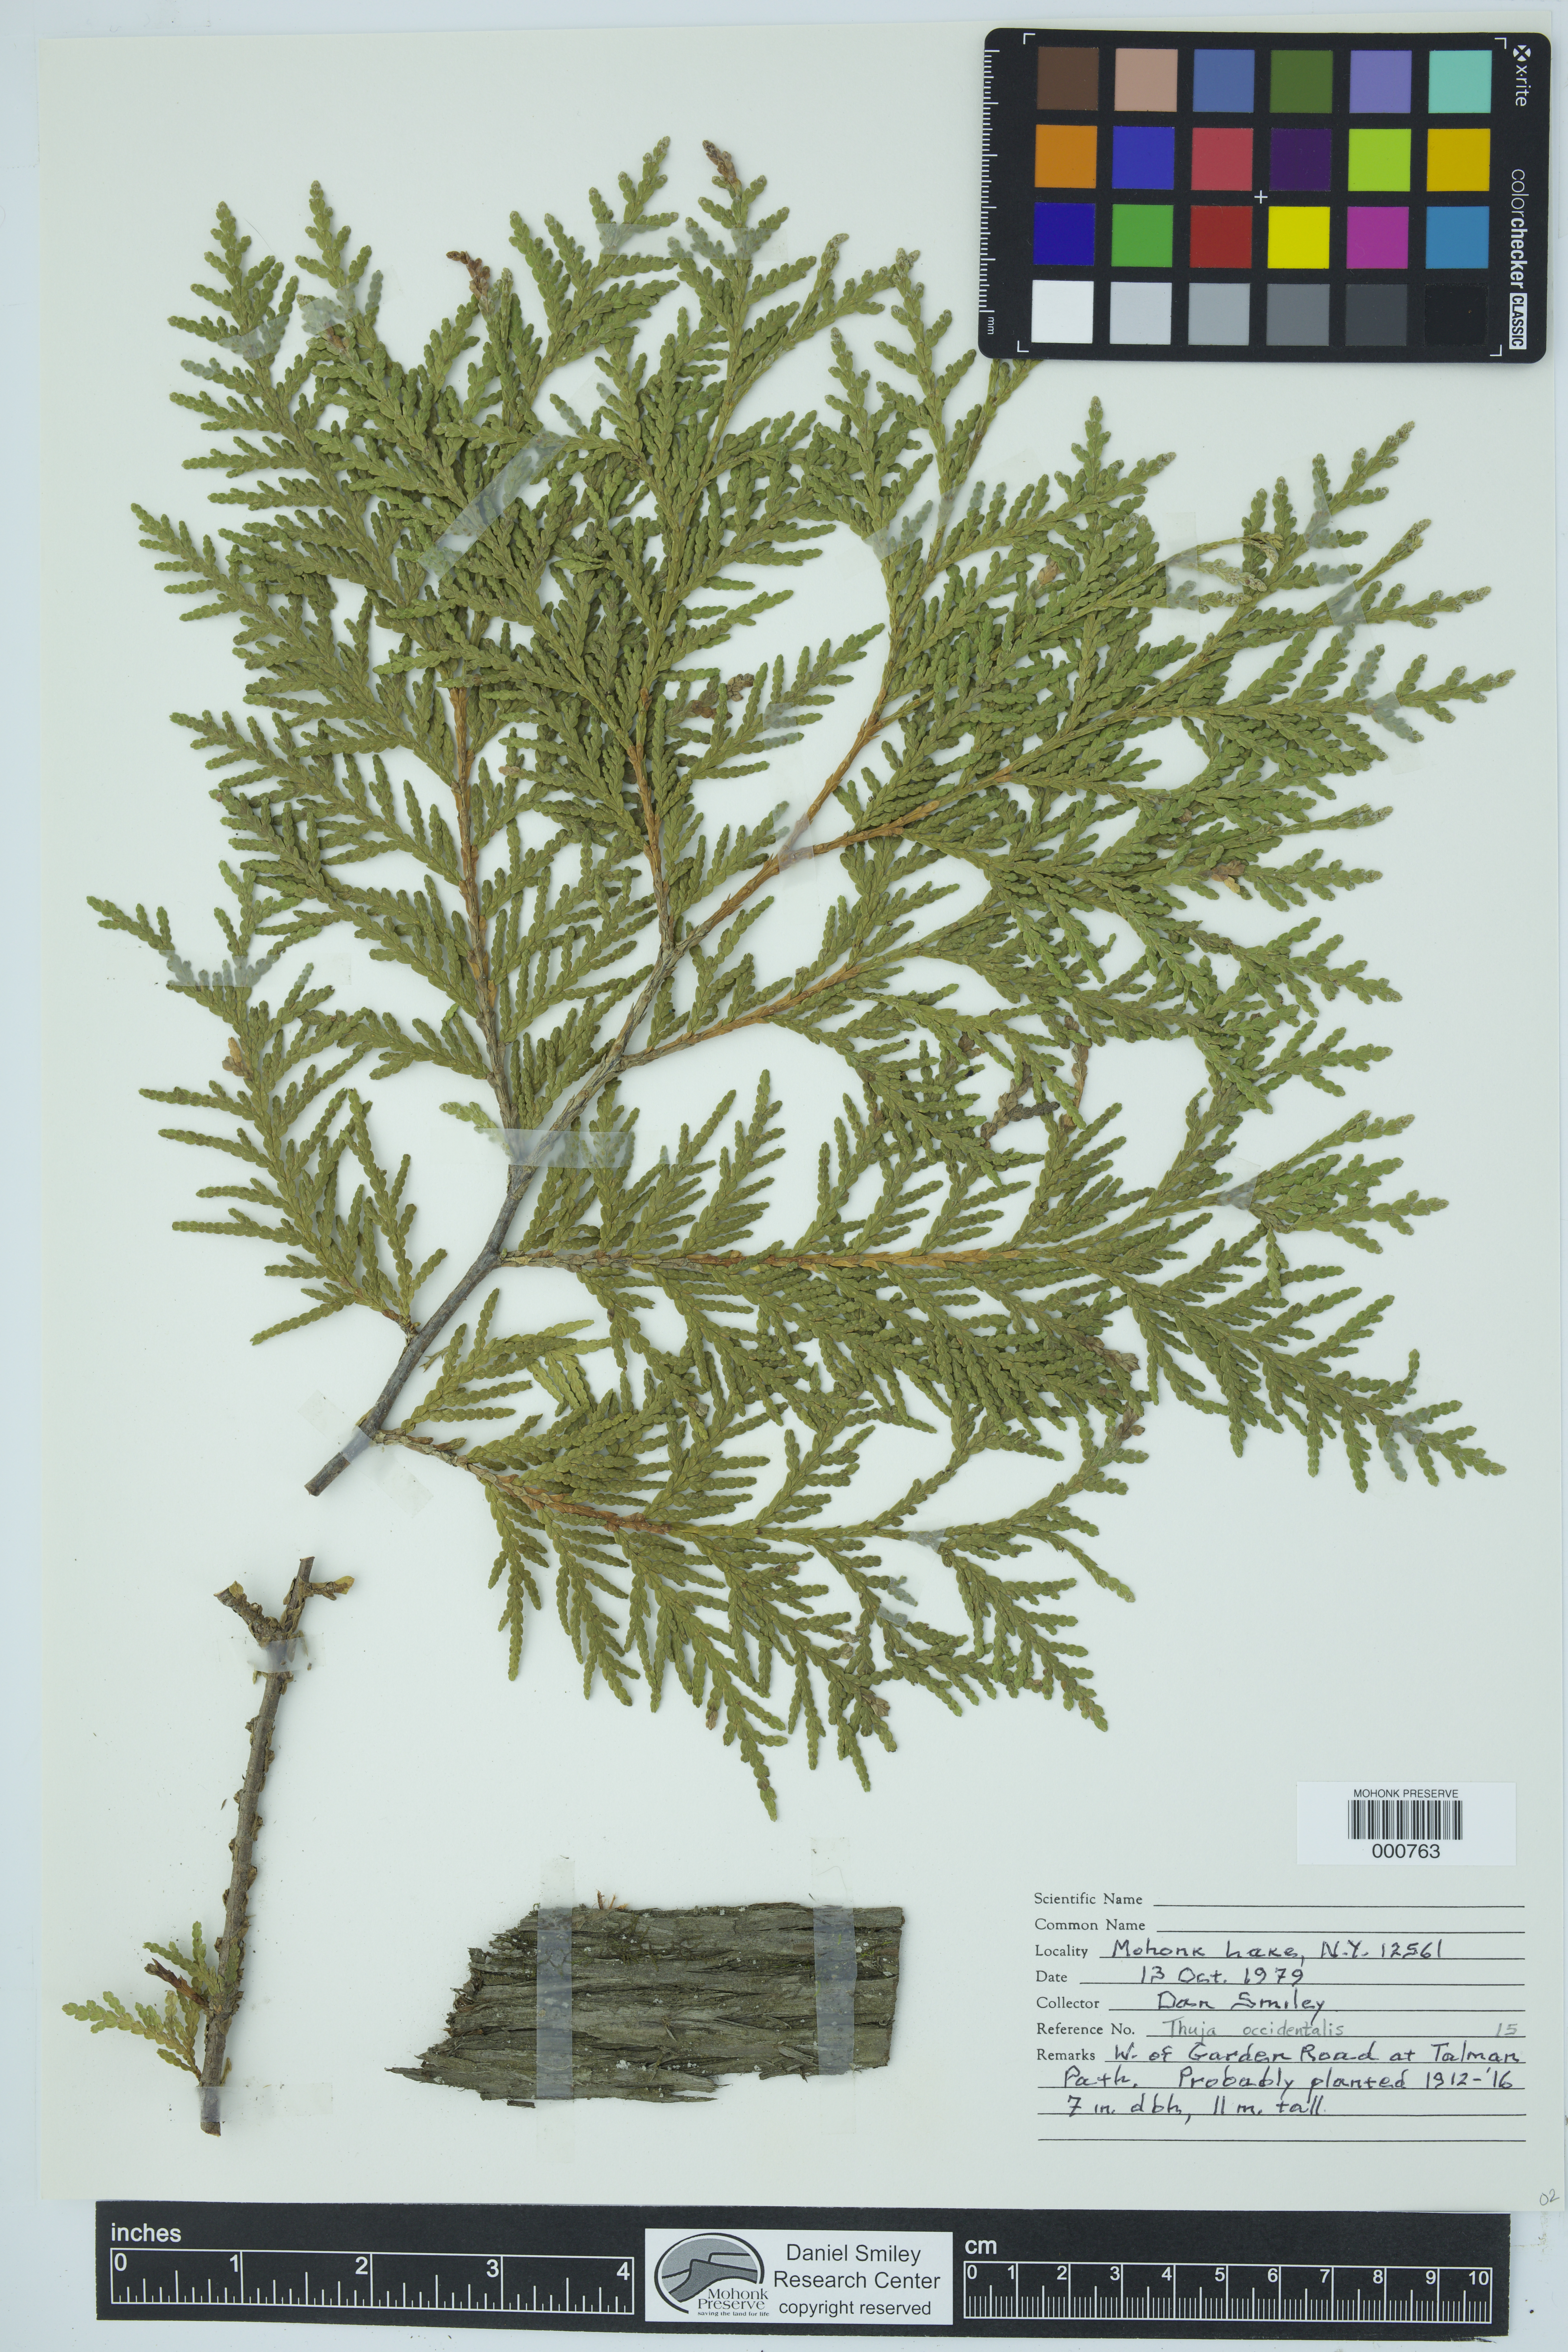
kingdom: Plantae
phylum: Tracheophyta
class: Pinopsida
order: Pinales
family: Cupressaceae
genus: Thuja
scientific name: Thuja occidentalis
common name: Northern white-cedar
